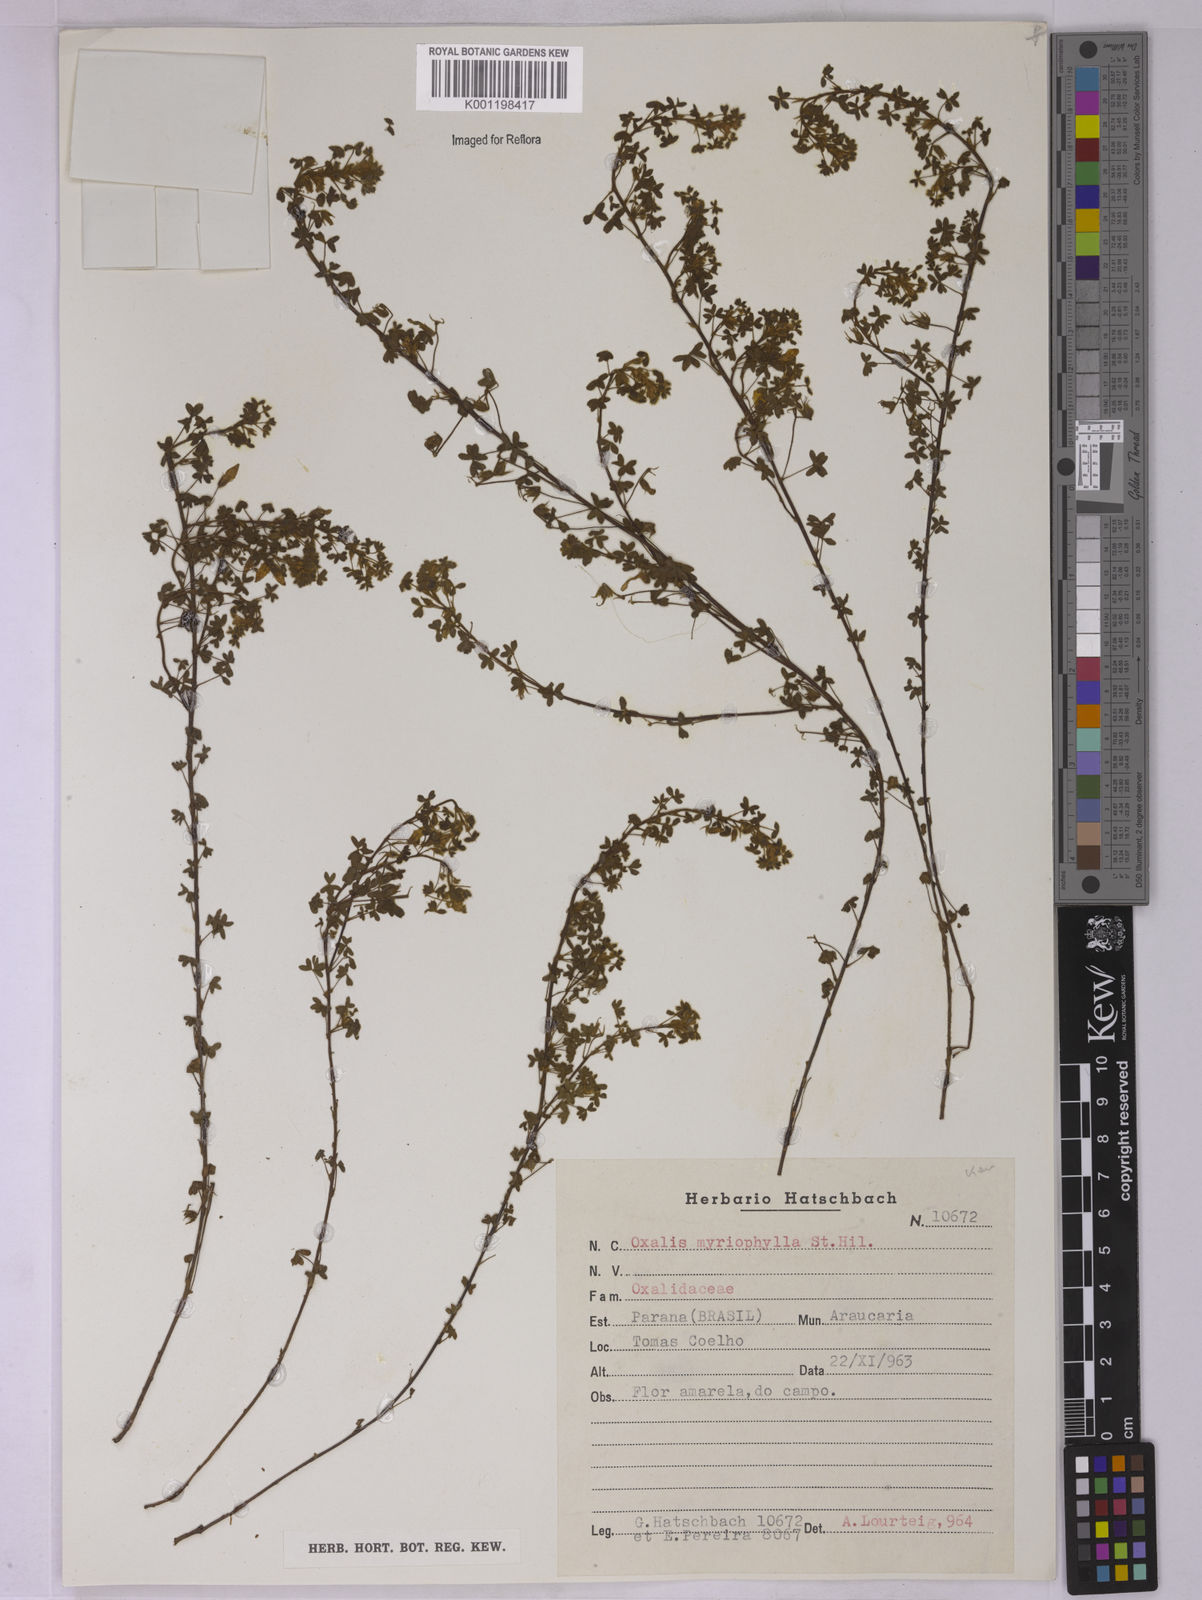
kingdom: Plantae
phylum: Tracheophyta
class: Magnoliopsida
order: Oxalidales
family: Oxalidaceae
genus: Oxalis
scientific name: Oxalis myriophylla
